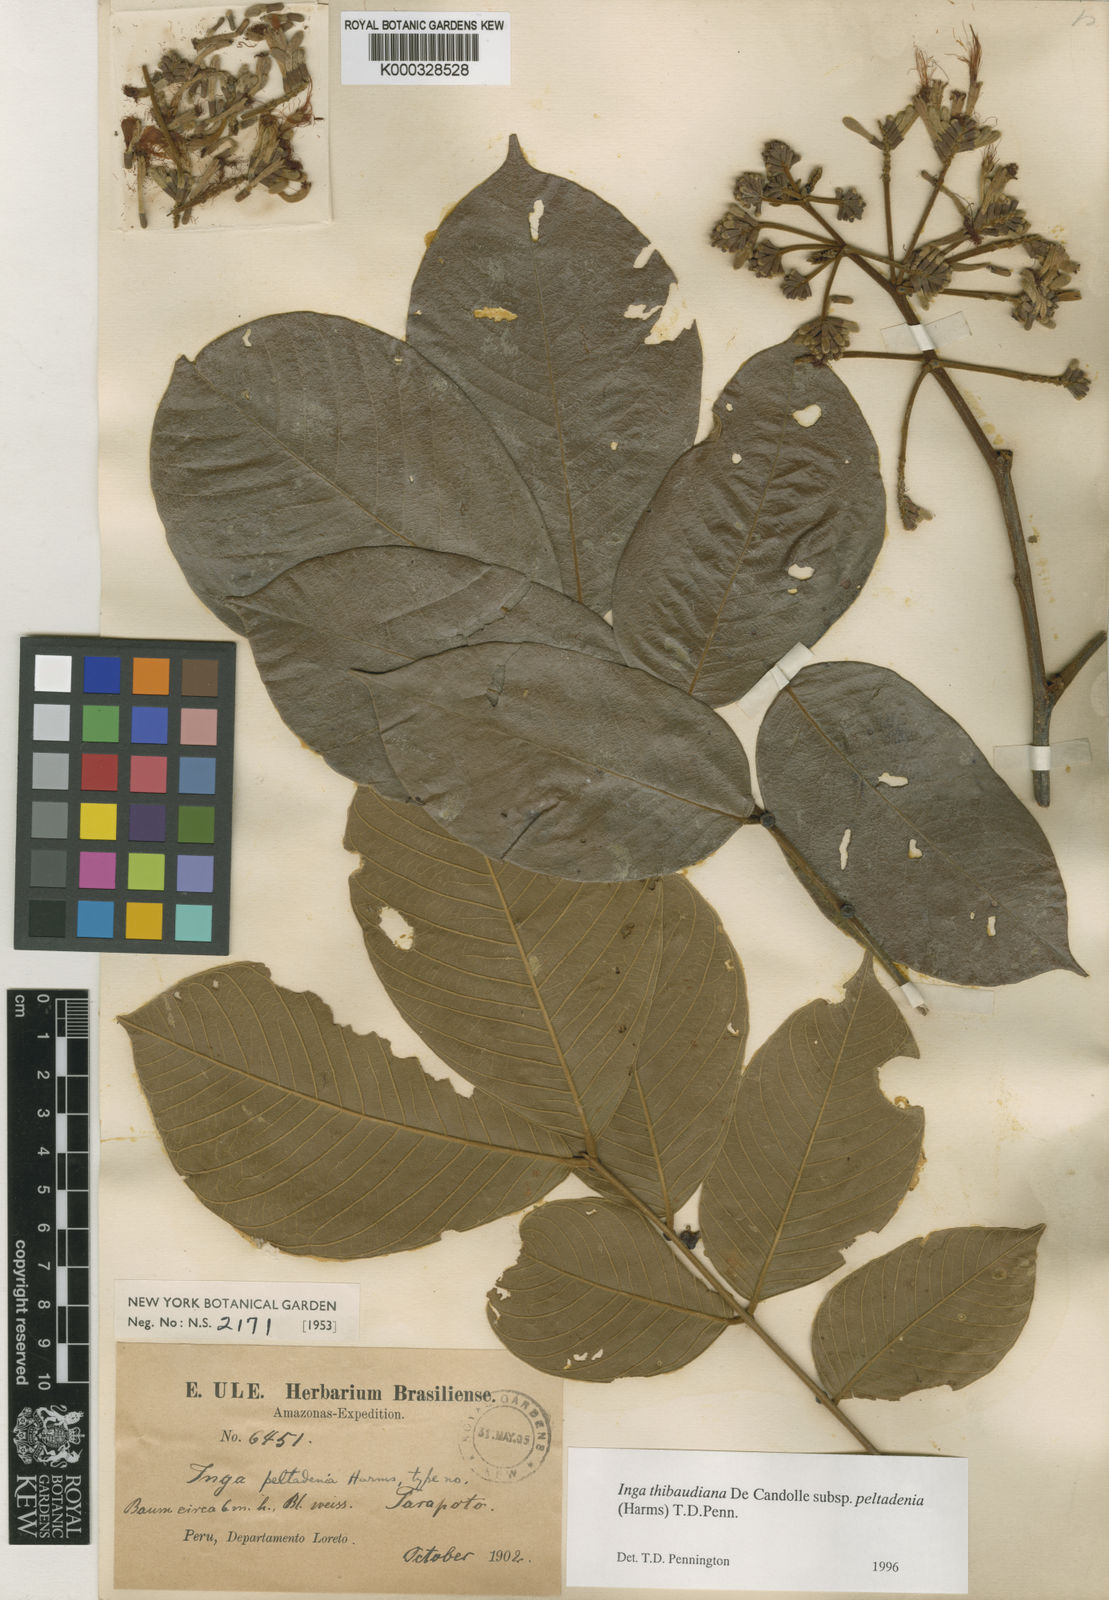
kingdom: Plantae
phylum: Tracheophyta
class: Magnoliopsida
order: Fabales
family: Fabaceae
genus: Inga
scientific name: Inga thibaudiana
